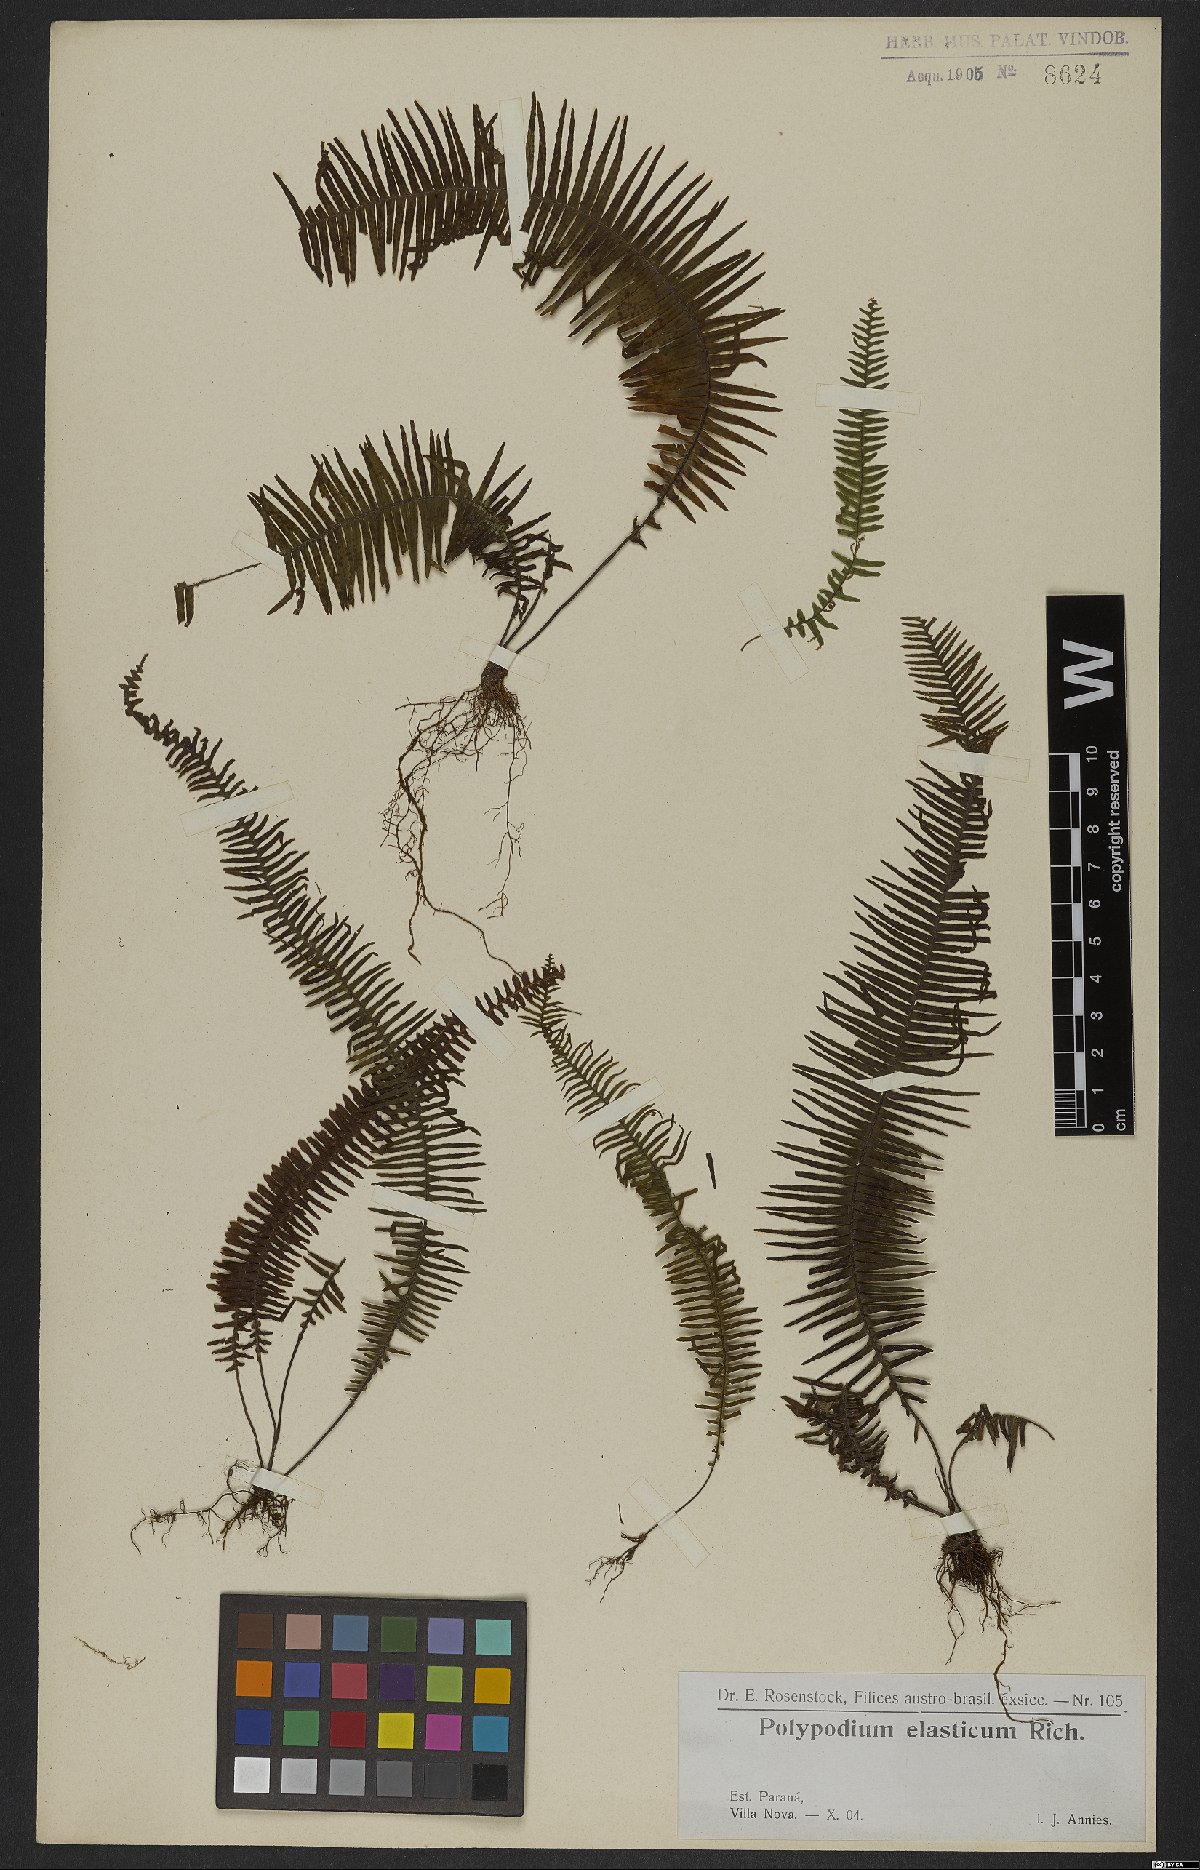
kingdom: Plantae
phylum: Tracheophyta
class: Polypodiopsida
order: Polypodiales
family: Polypodiaceae
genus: Pecluma
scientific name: Pecluma plumula
